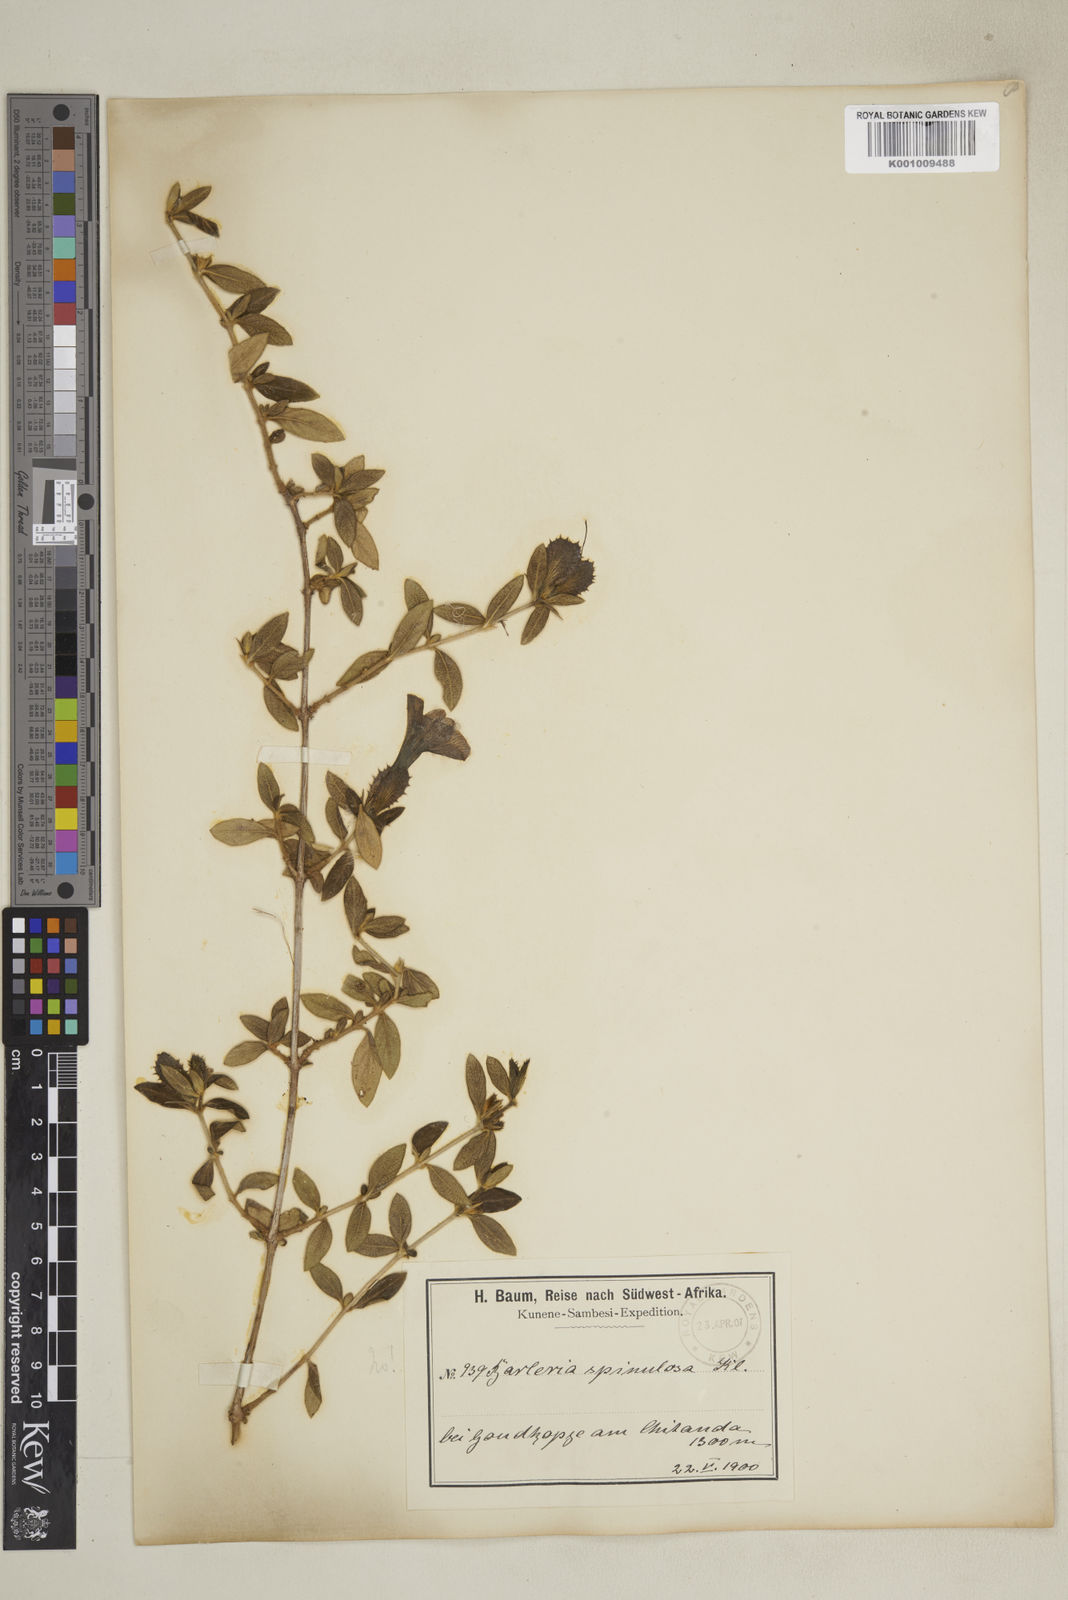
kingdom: Plantae
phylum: Tracheophyta
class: Magnoliopsida
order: Lamiales
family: Acanthaceae
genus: Barleria
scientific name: Barleria
